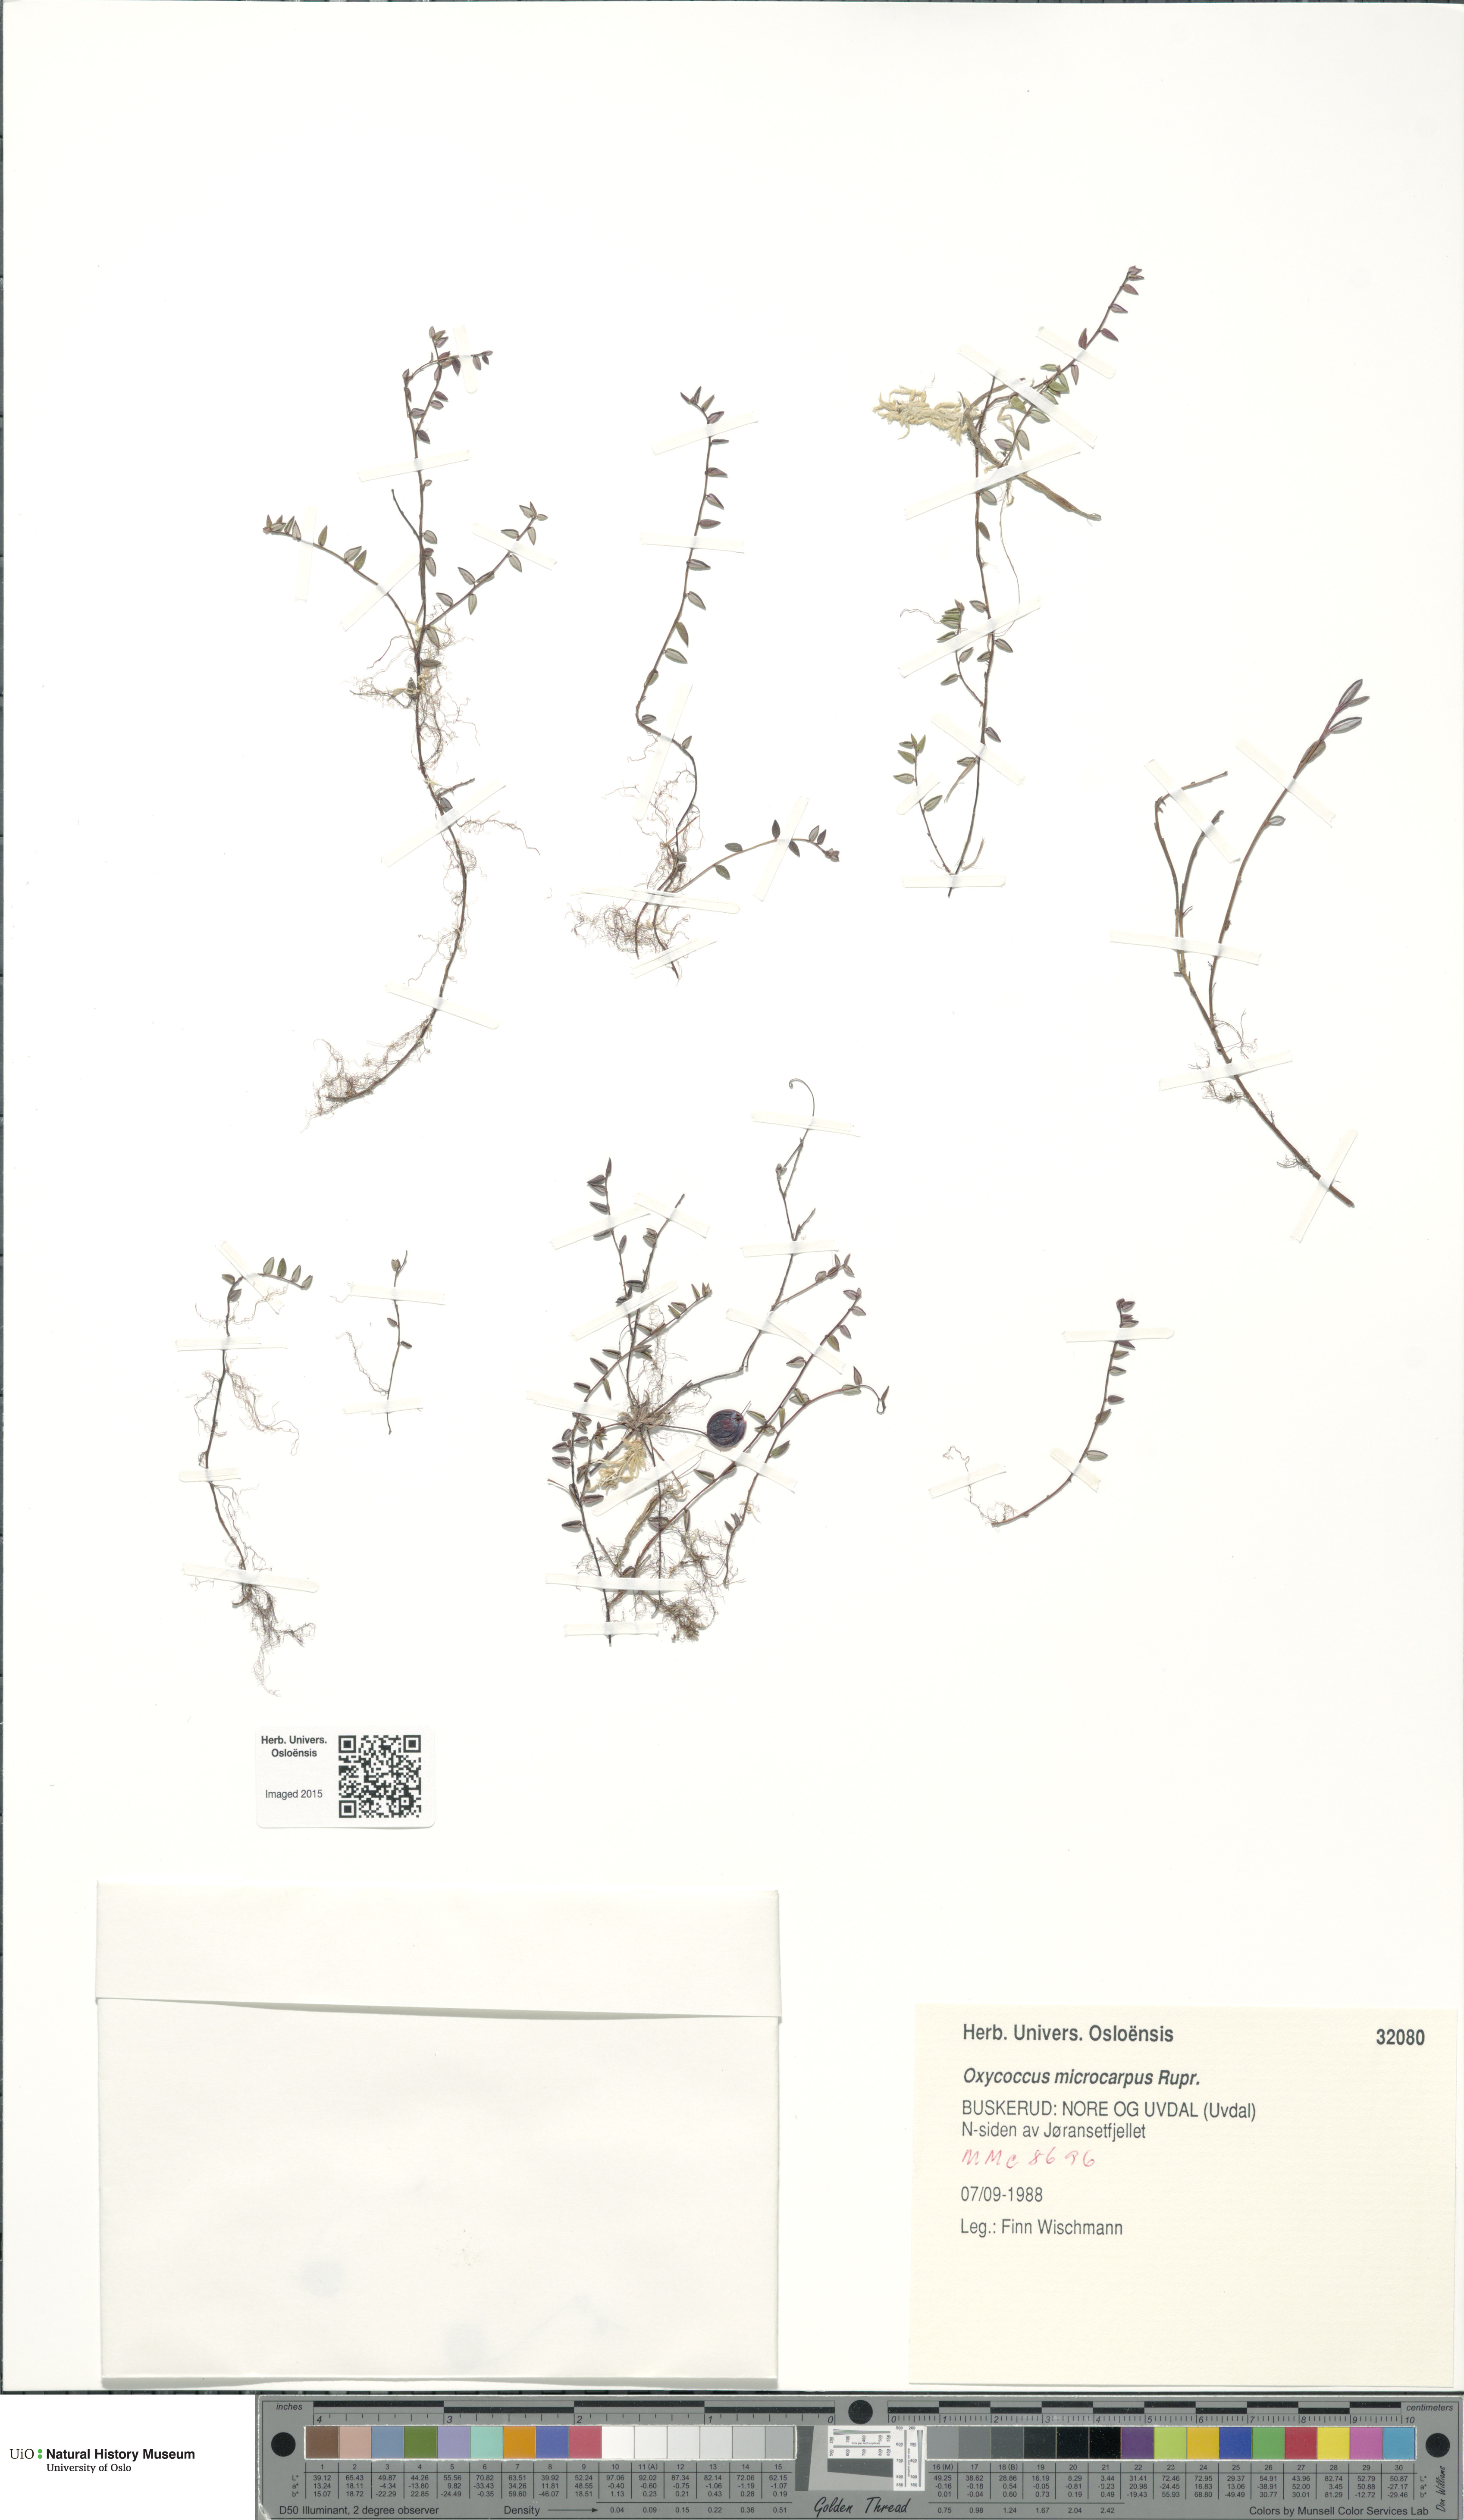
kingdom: Plantae
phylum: Tracheophyta
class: Magnoliopsida
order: Ericales
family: Ericaceae
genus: Vaccinium
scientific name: Vaccinium microcarpum
